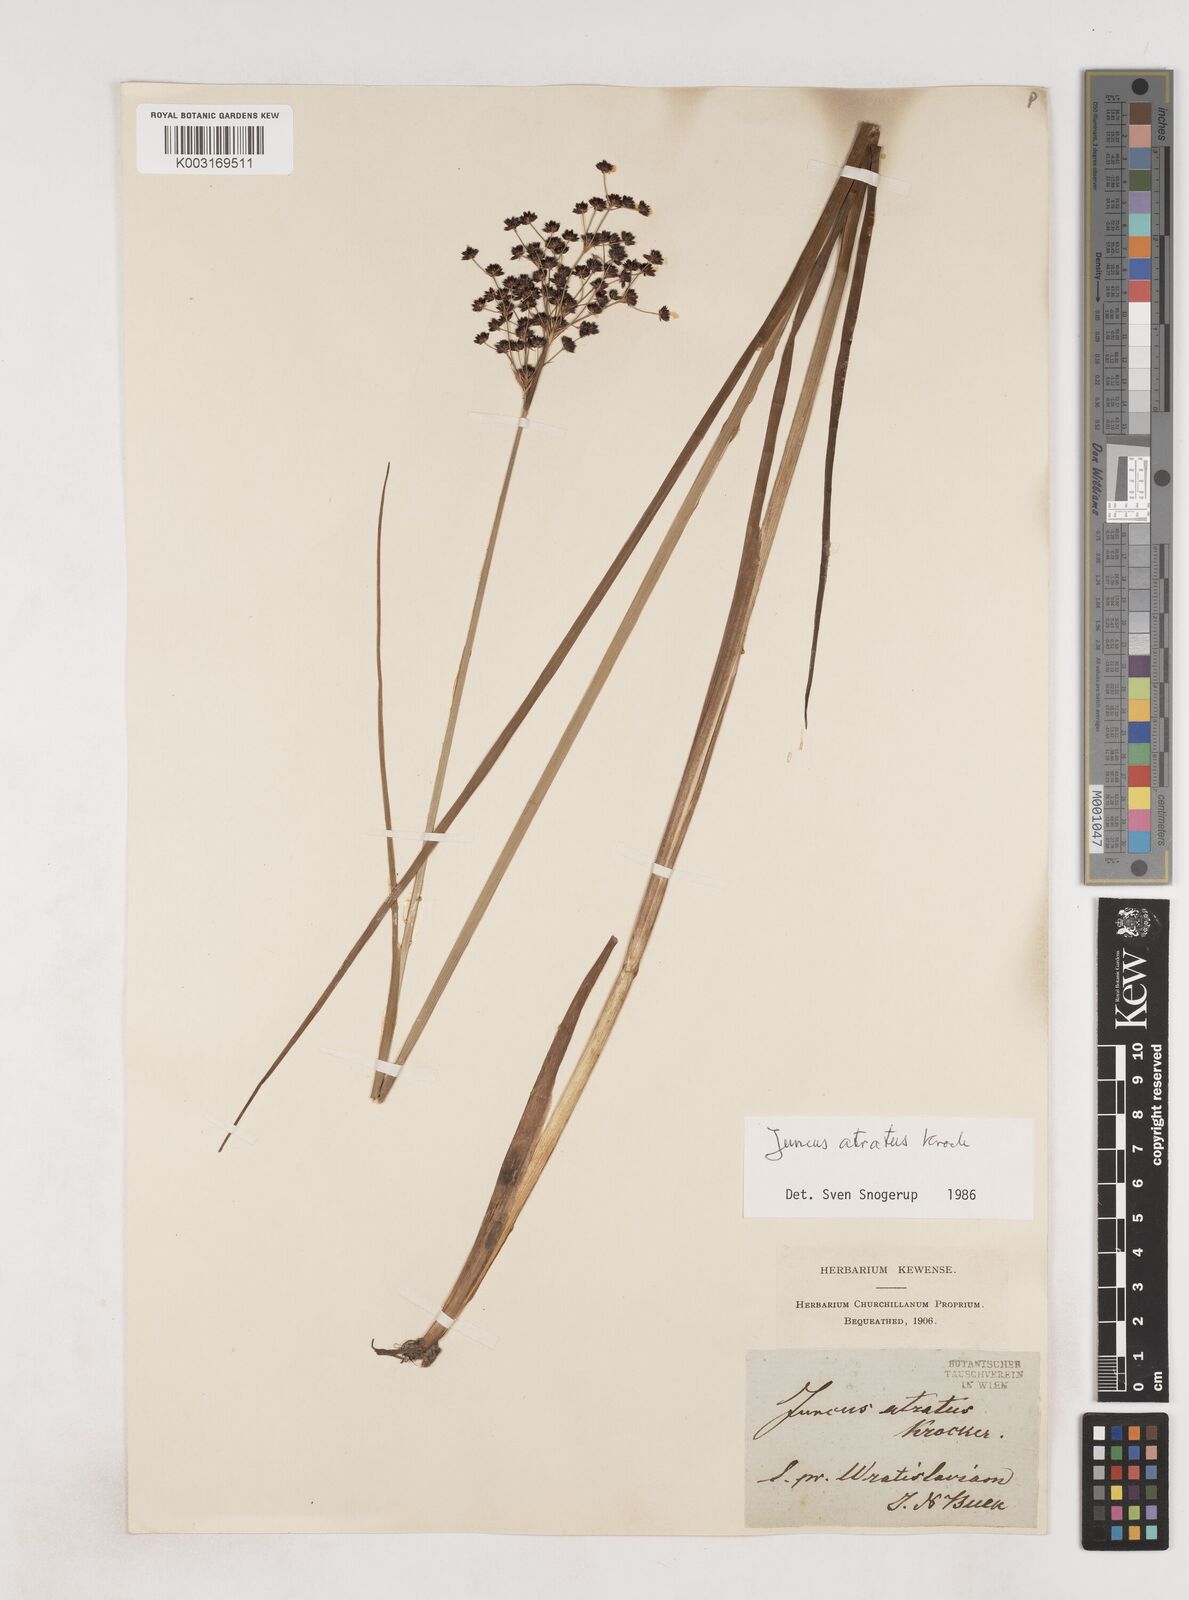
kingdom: Plantae
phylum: Tracheophyta
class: Liliopsida
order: Poales
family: Juncaceae
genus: Juncus
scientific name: Juncus atratus
